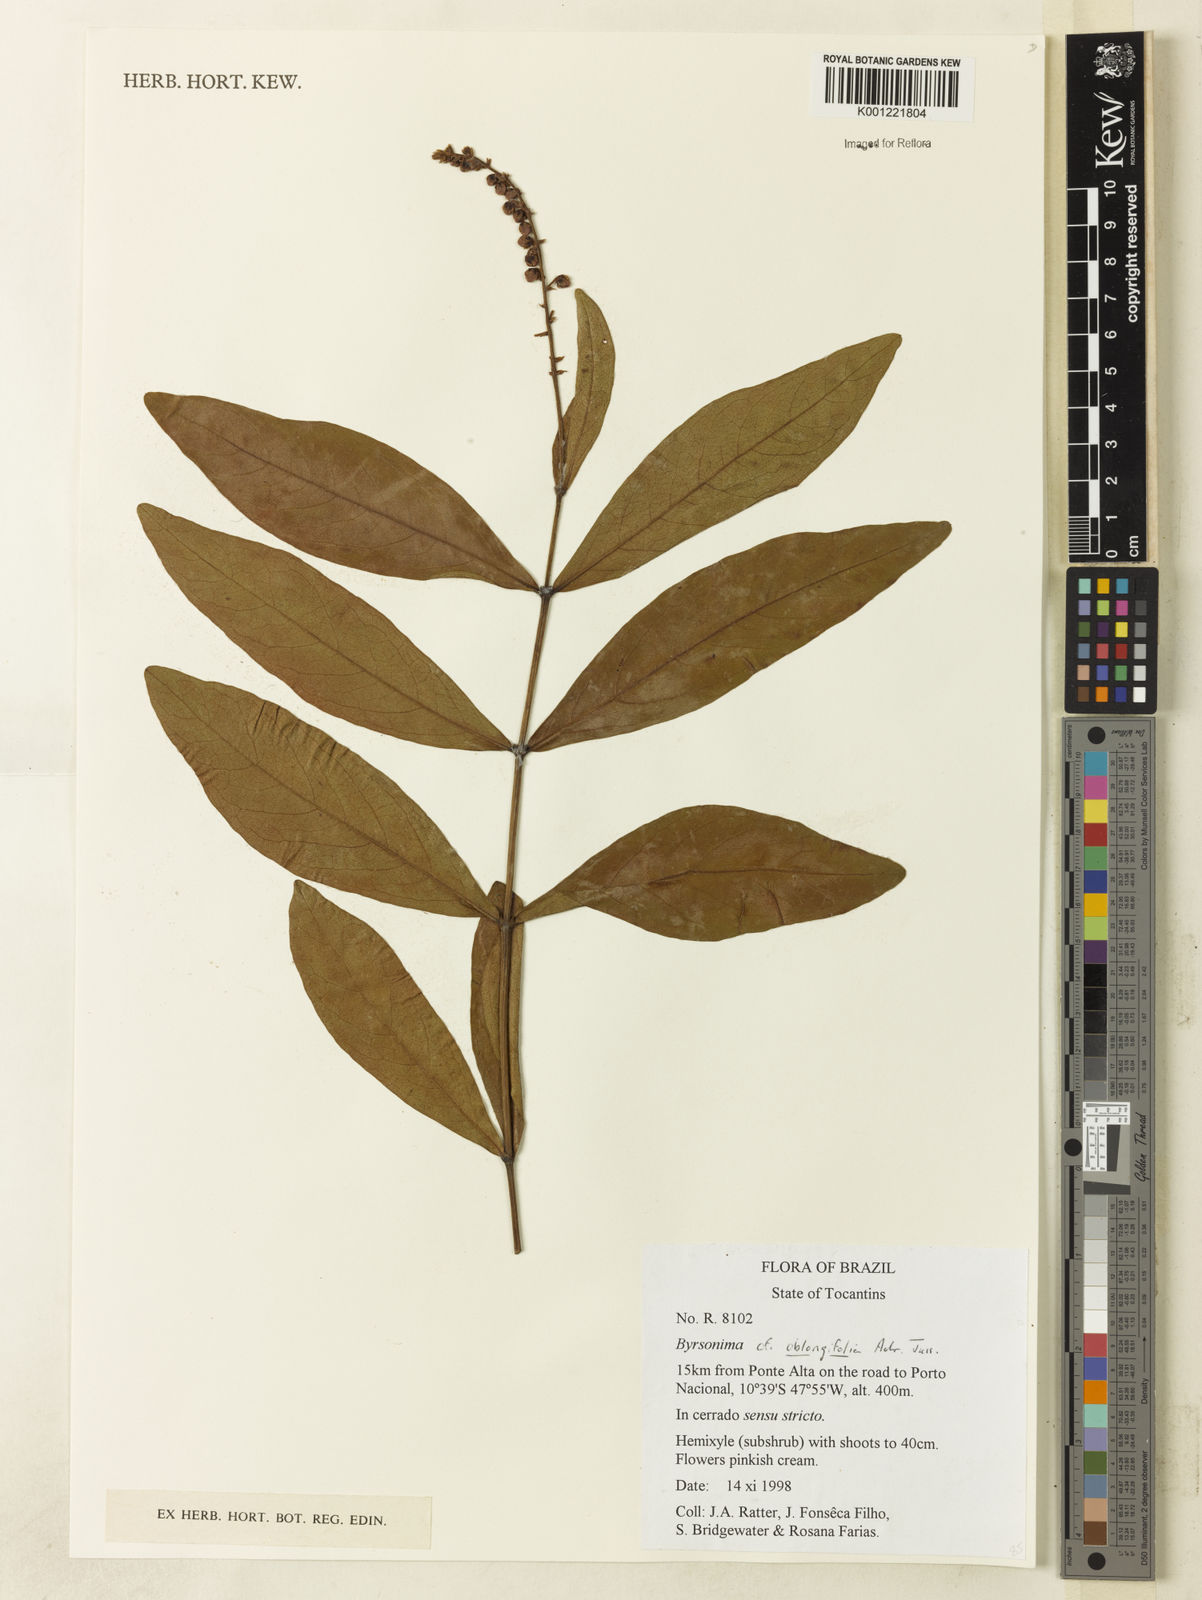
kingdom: Plantae
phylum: Tracheophyta
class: Magnoliopsida
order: Malpighiales
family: Malpighiaceae
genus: Byrsonima
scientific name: Byrsonima oblongifolia
